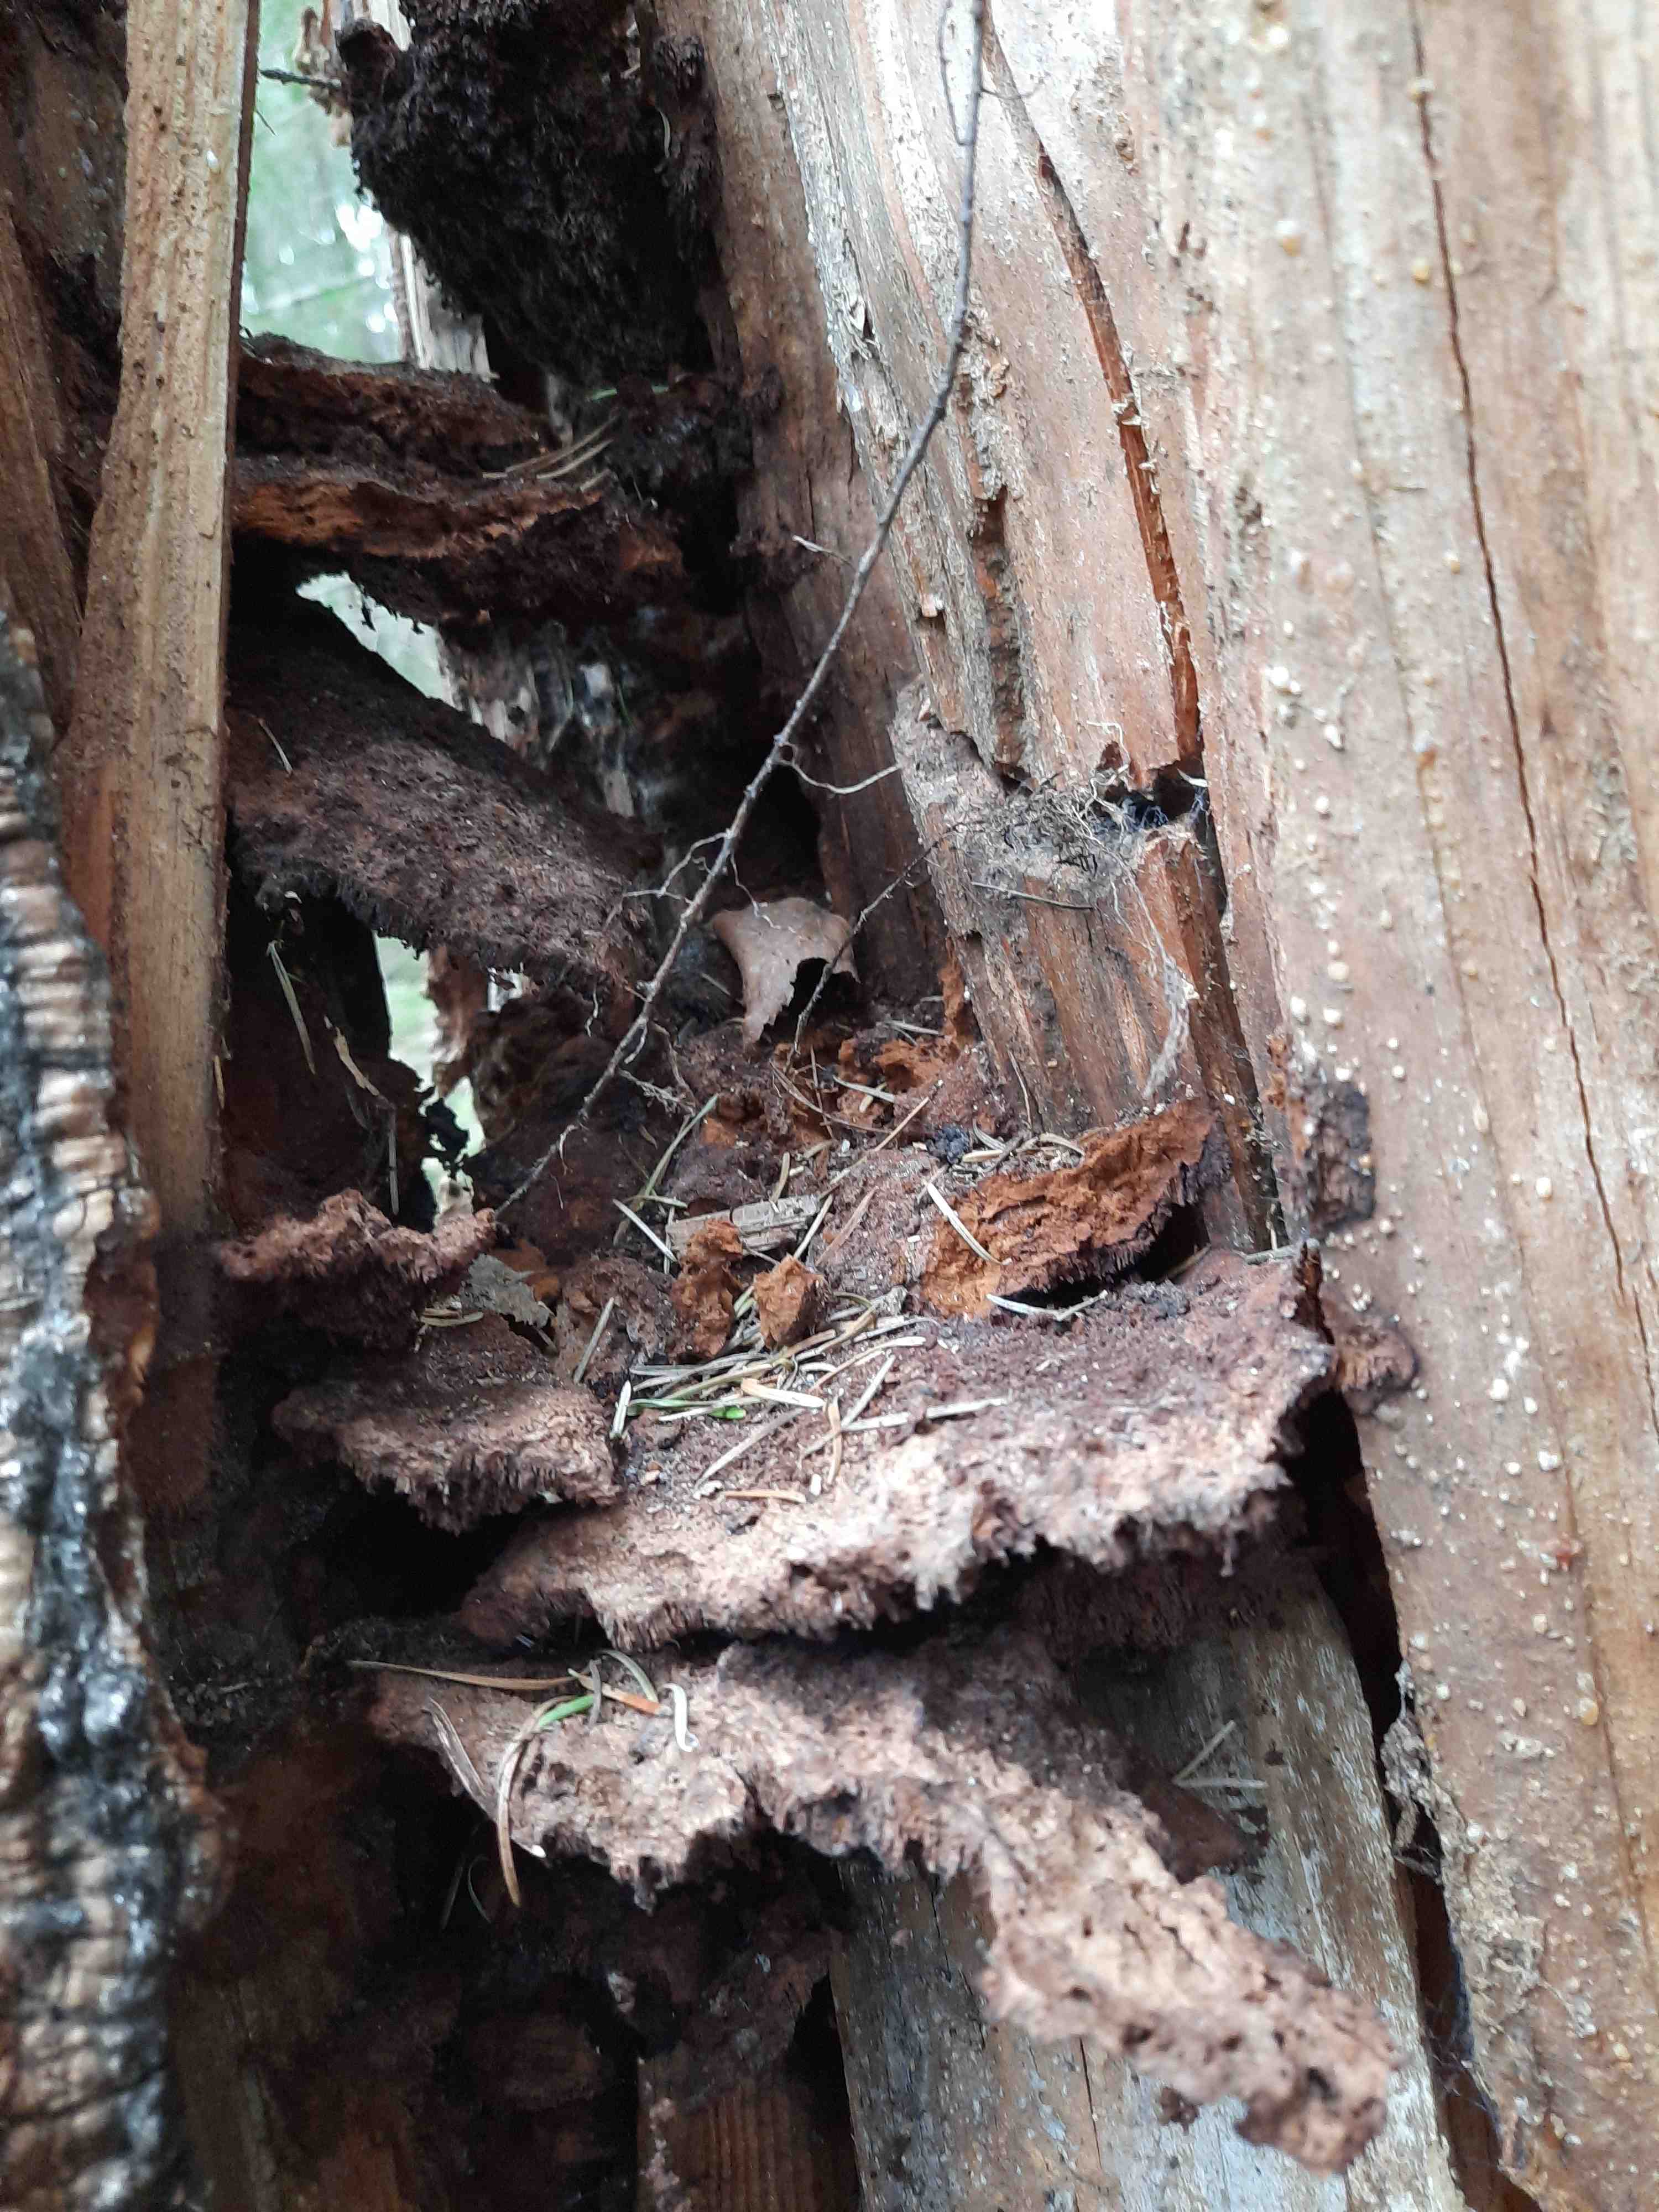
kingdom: Fungi
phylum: Basidiomycota
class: Agaricomycetes
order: Polyporales
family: Laetiporaceae
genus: Phaeolus
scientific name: Phaeolus schweinitzii
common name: brunporesvamp
